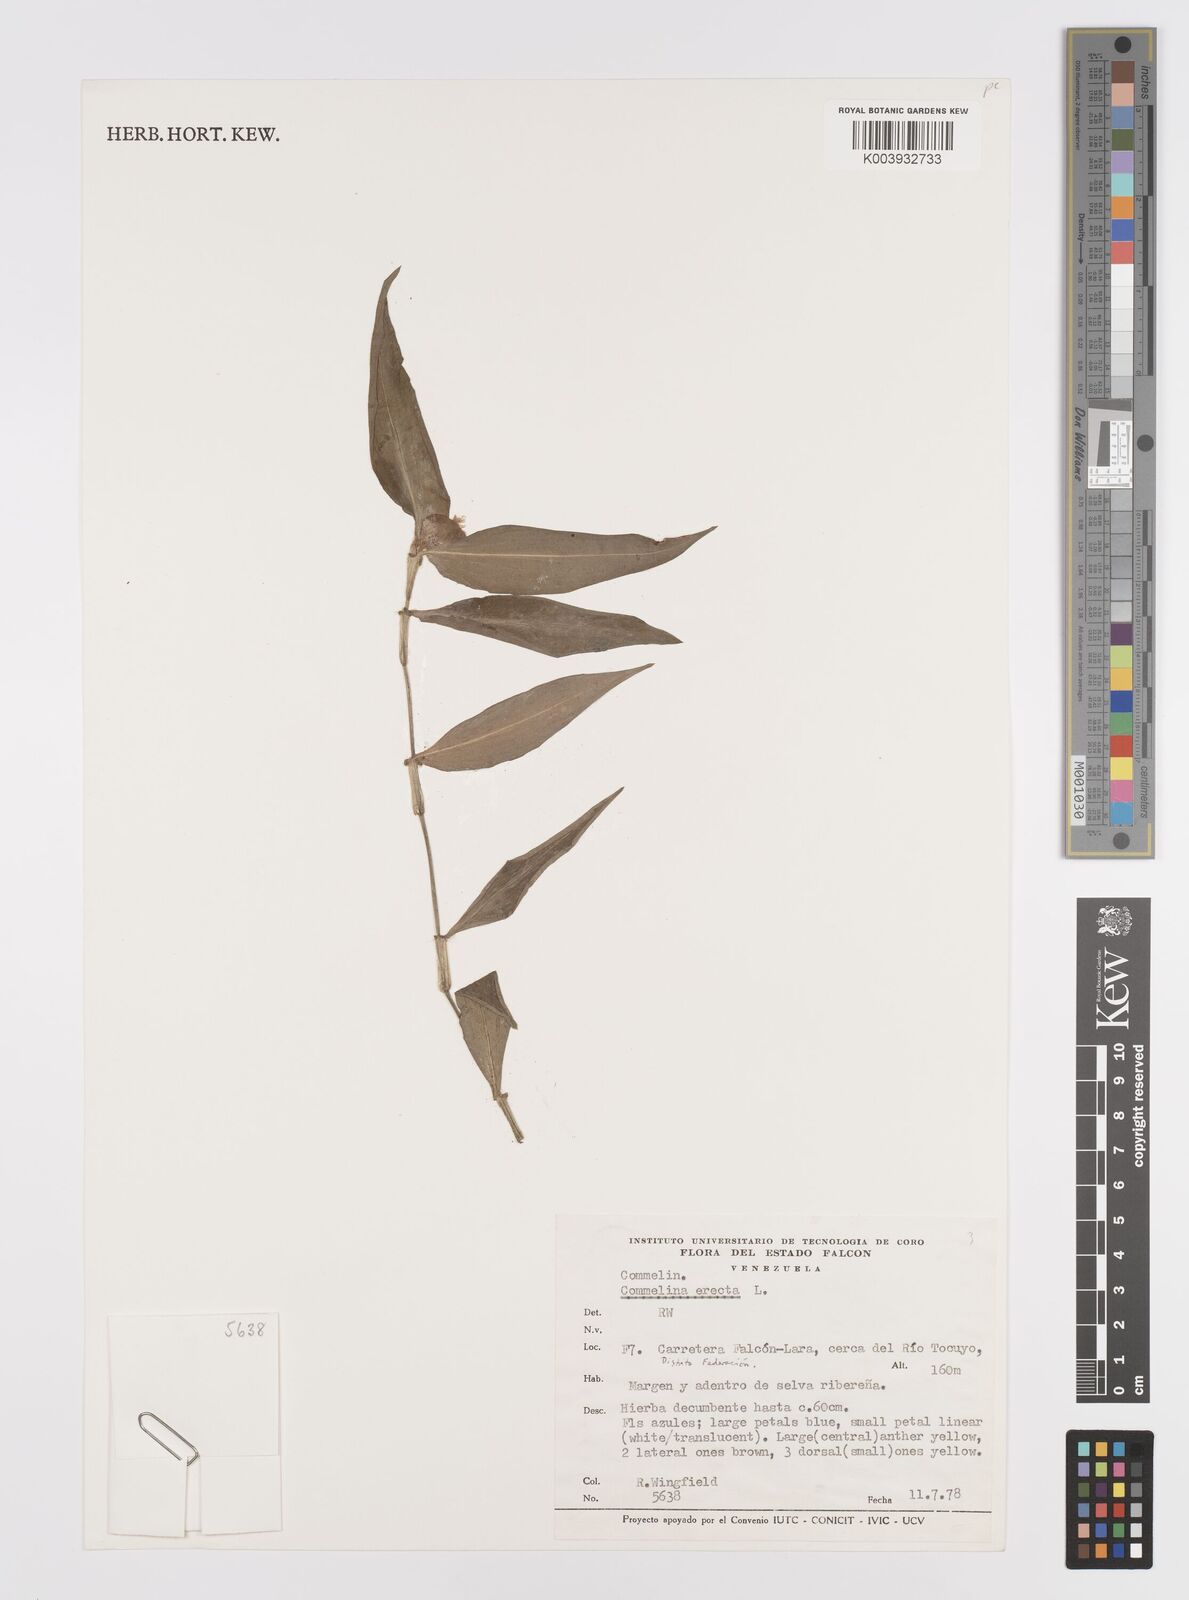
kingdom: Plantae
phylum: Tracheophyta
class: Liliopsida
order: Commelinales
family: Commelinaceae
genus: Commelina
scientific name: Commelina erecta
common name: Blousel blommetjie
